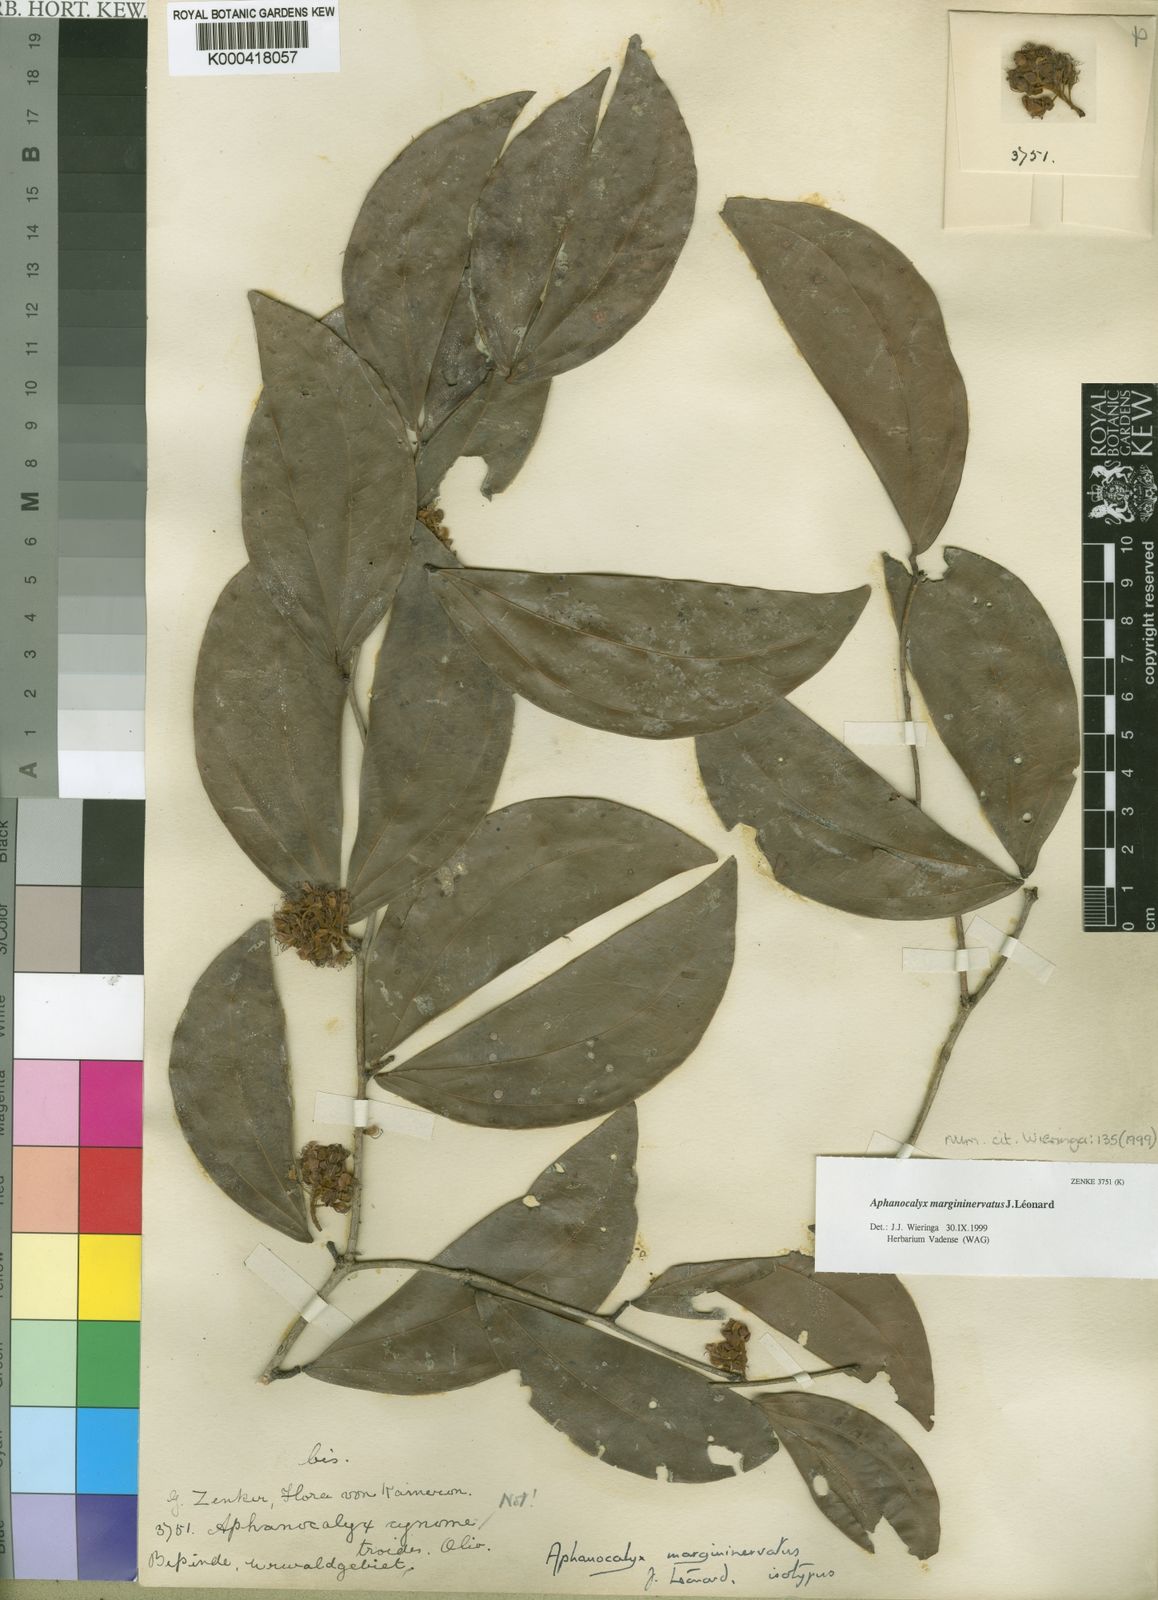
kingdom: Plantae
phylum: Tracheophyta
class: Magnoliopsida
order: Fabales
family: Fabaceae
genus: Aphanocalyx
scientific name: Aphanocalyx
